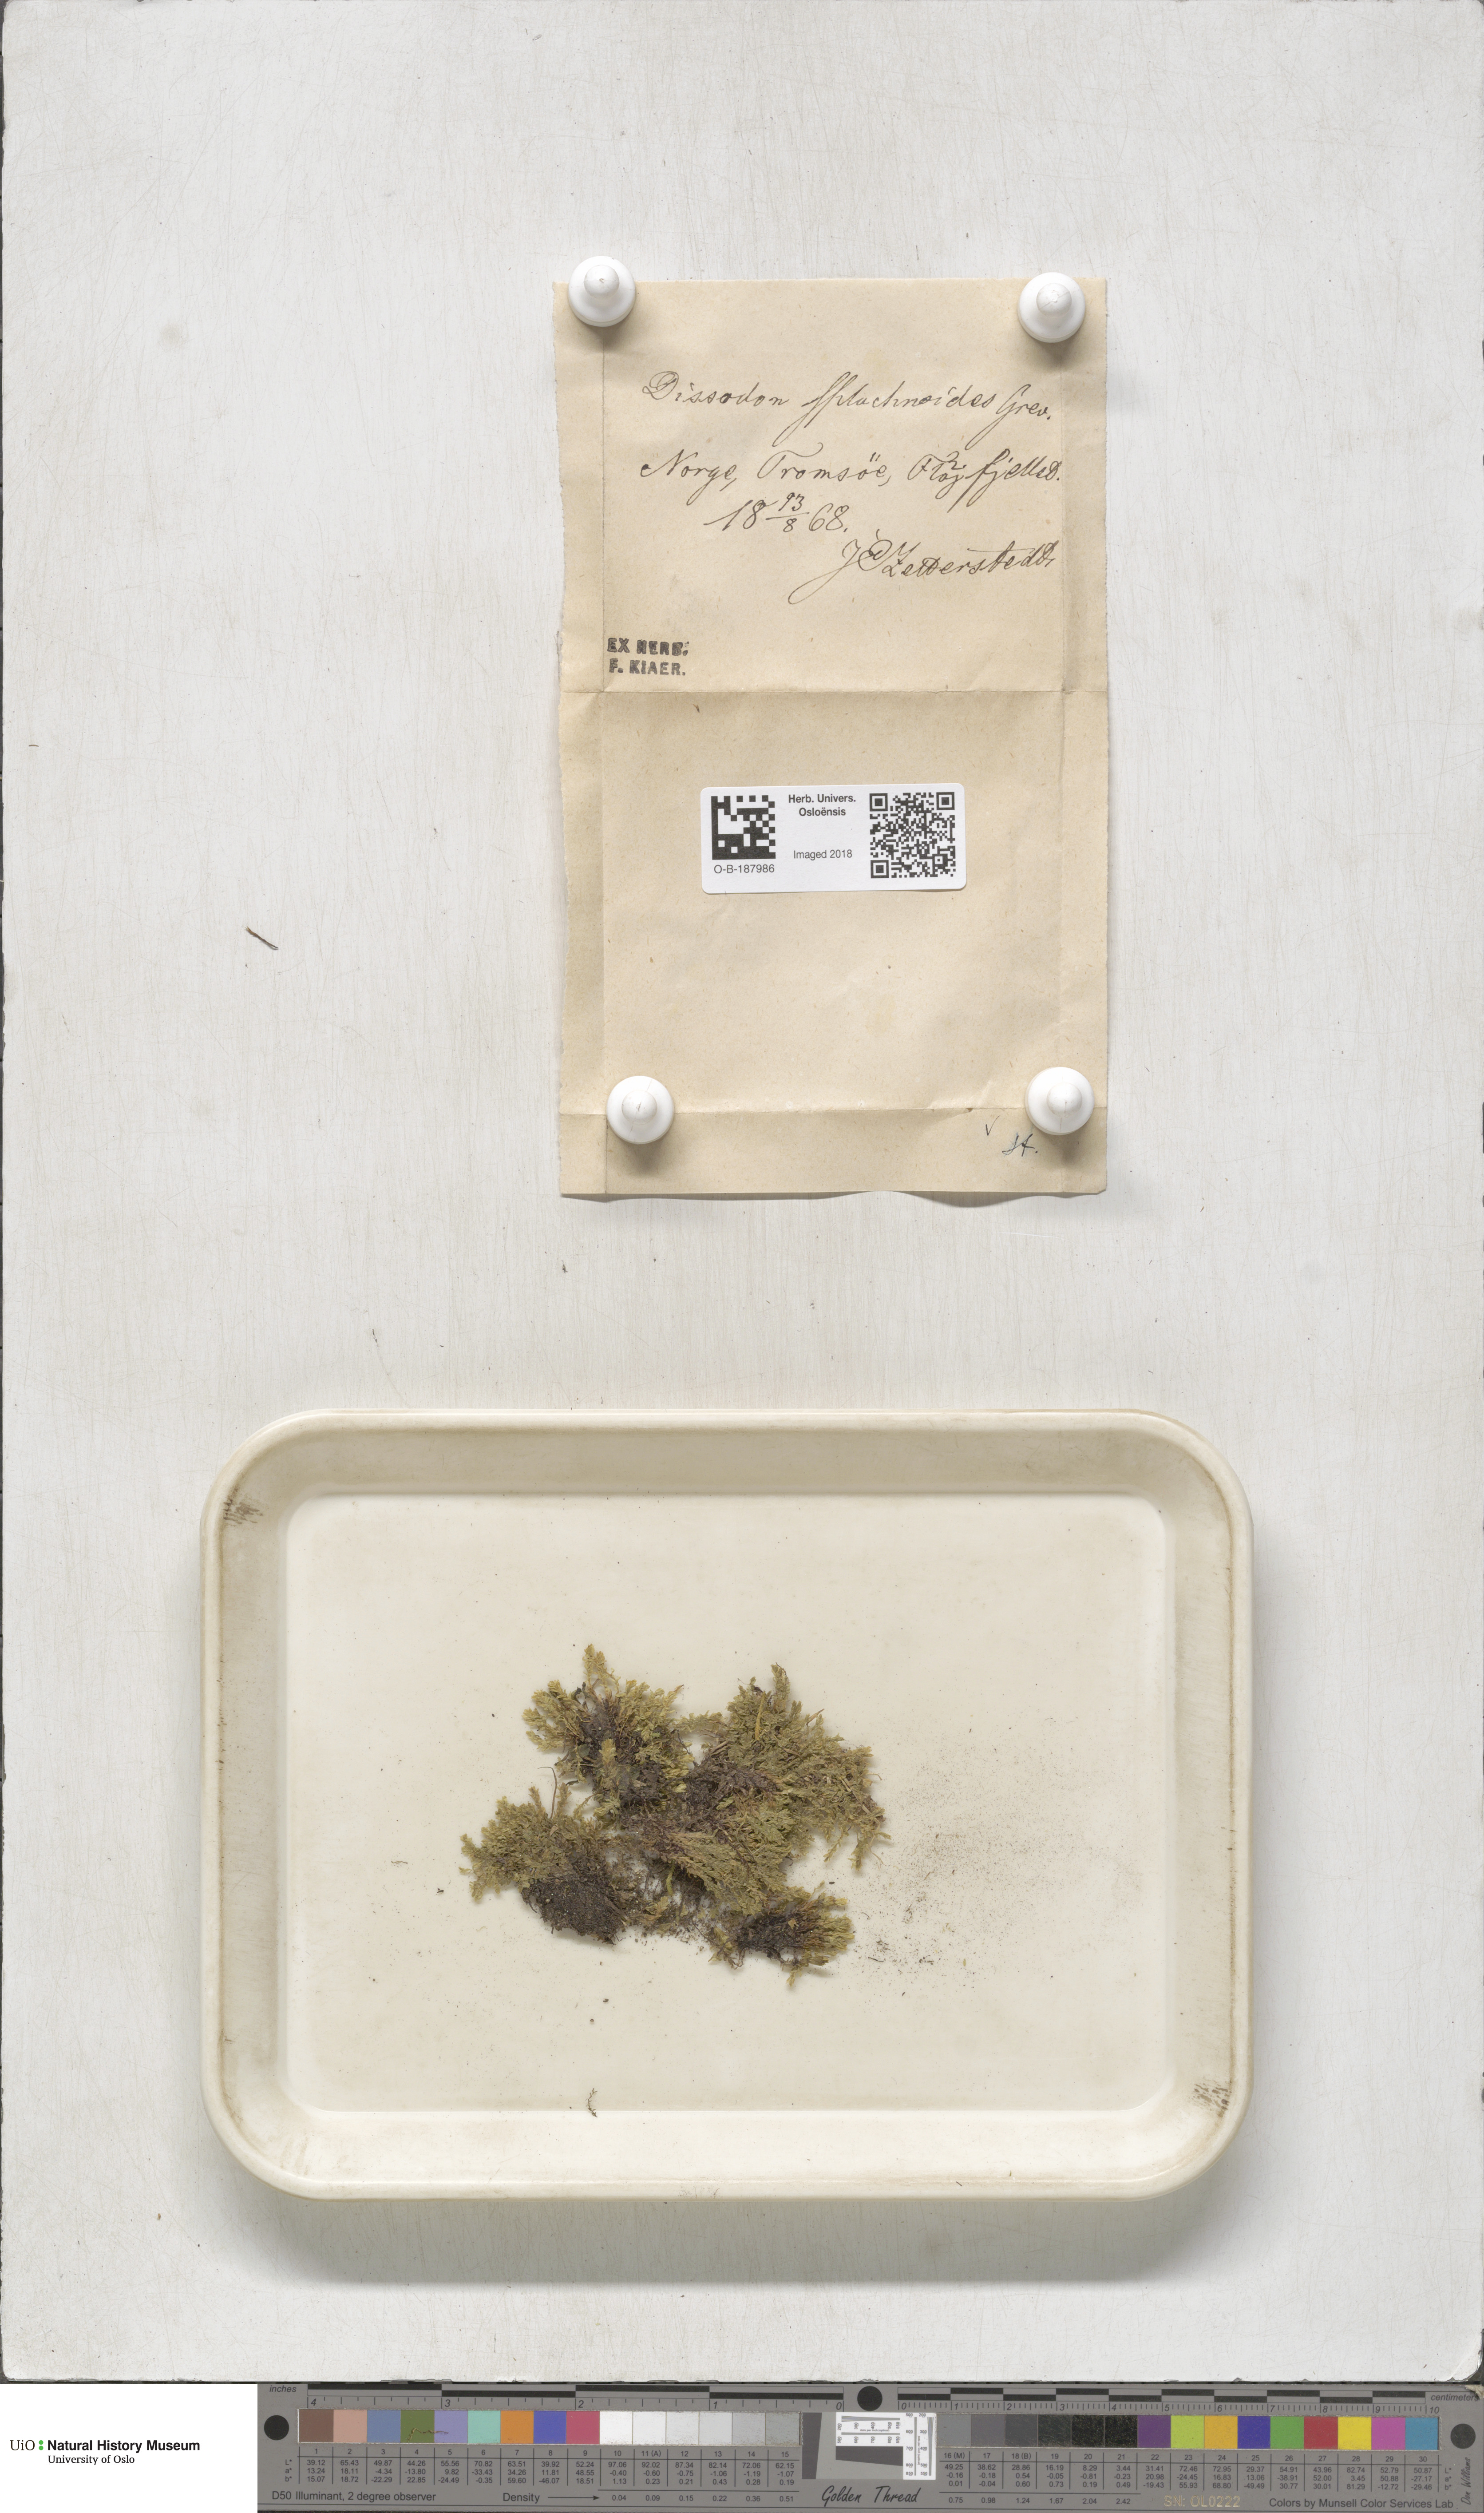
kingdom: Plantae
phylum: Bryophyta
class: Bryopsida
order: Splachnales
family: Splachnaceae
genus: Tayloria
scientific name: Tayloria lingulata
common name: Tongue-leaved trumpet moss
